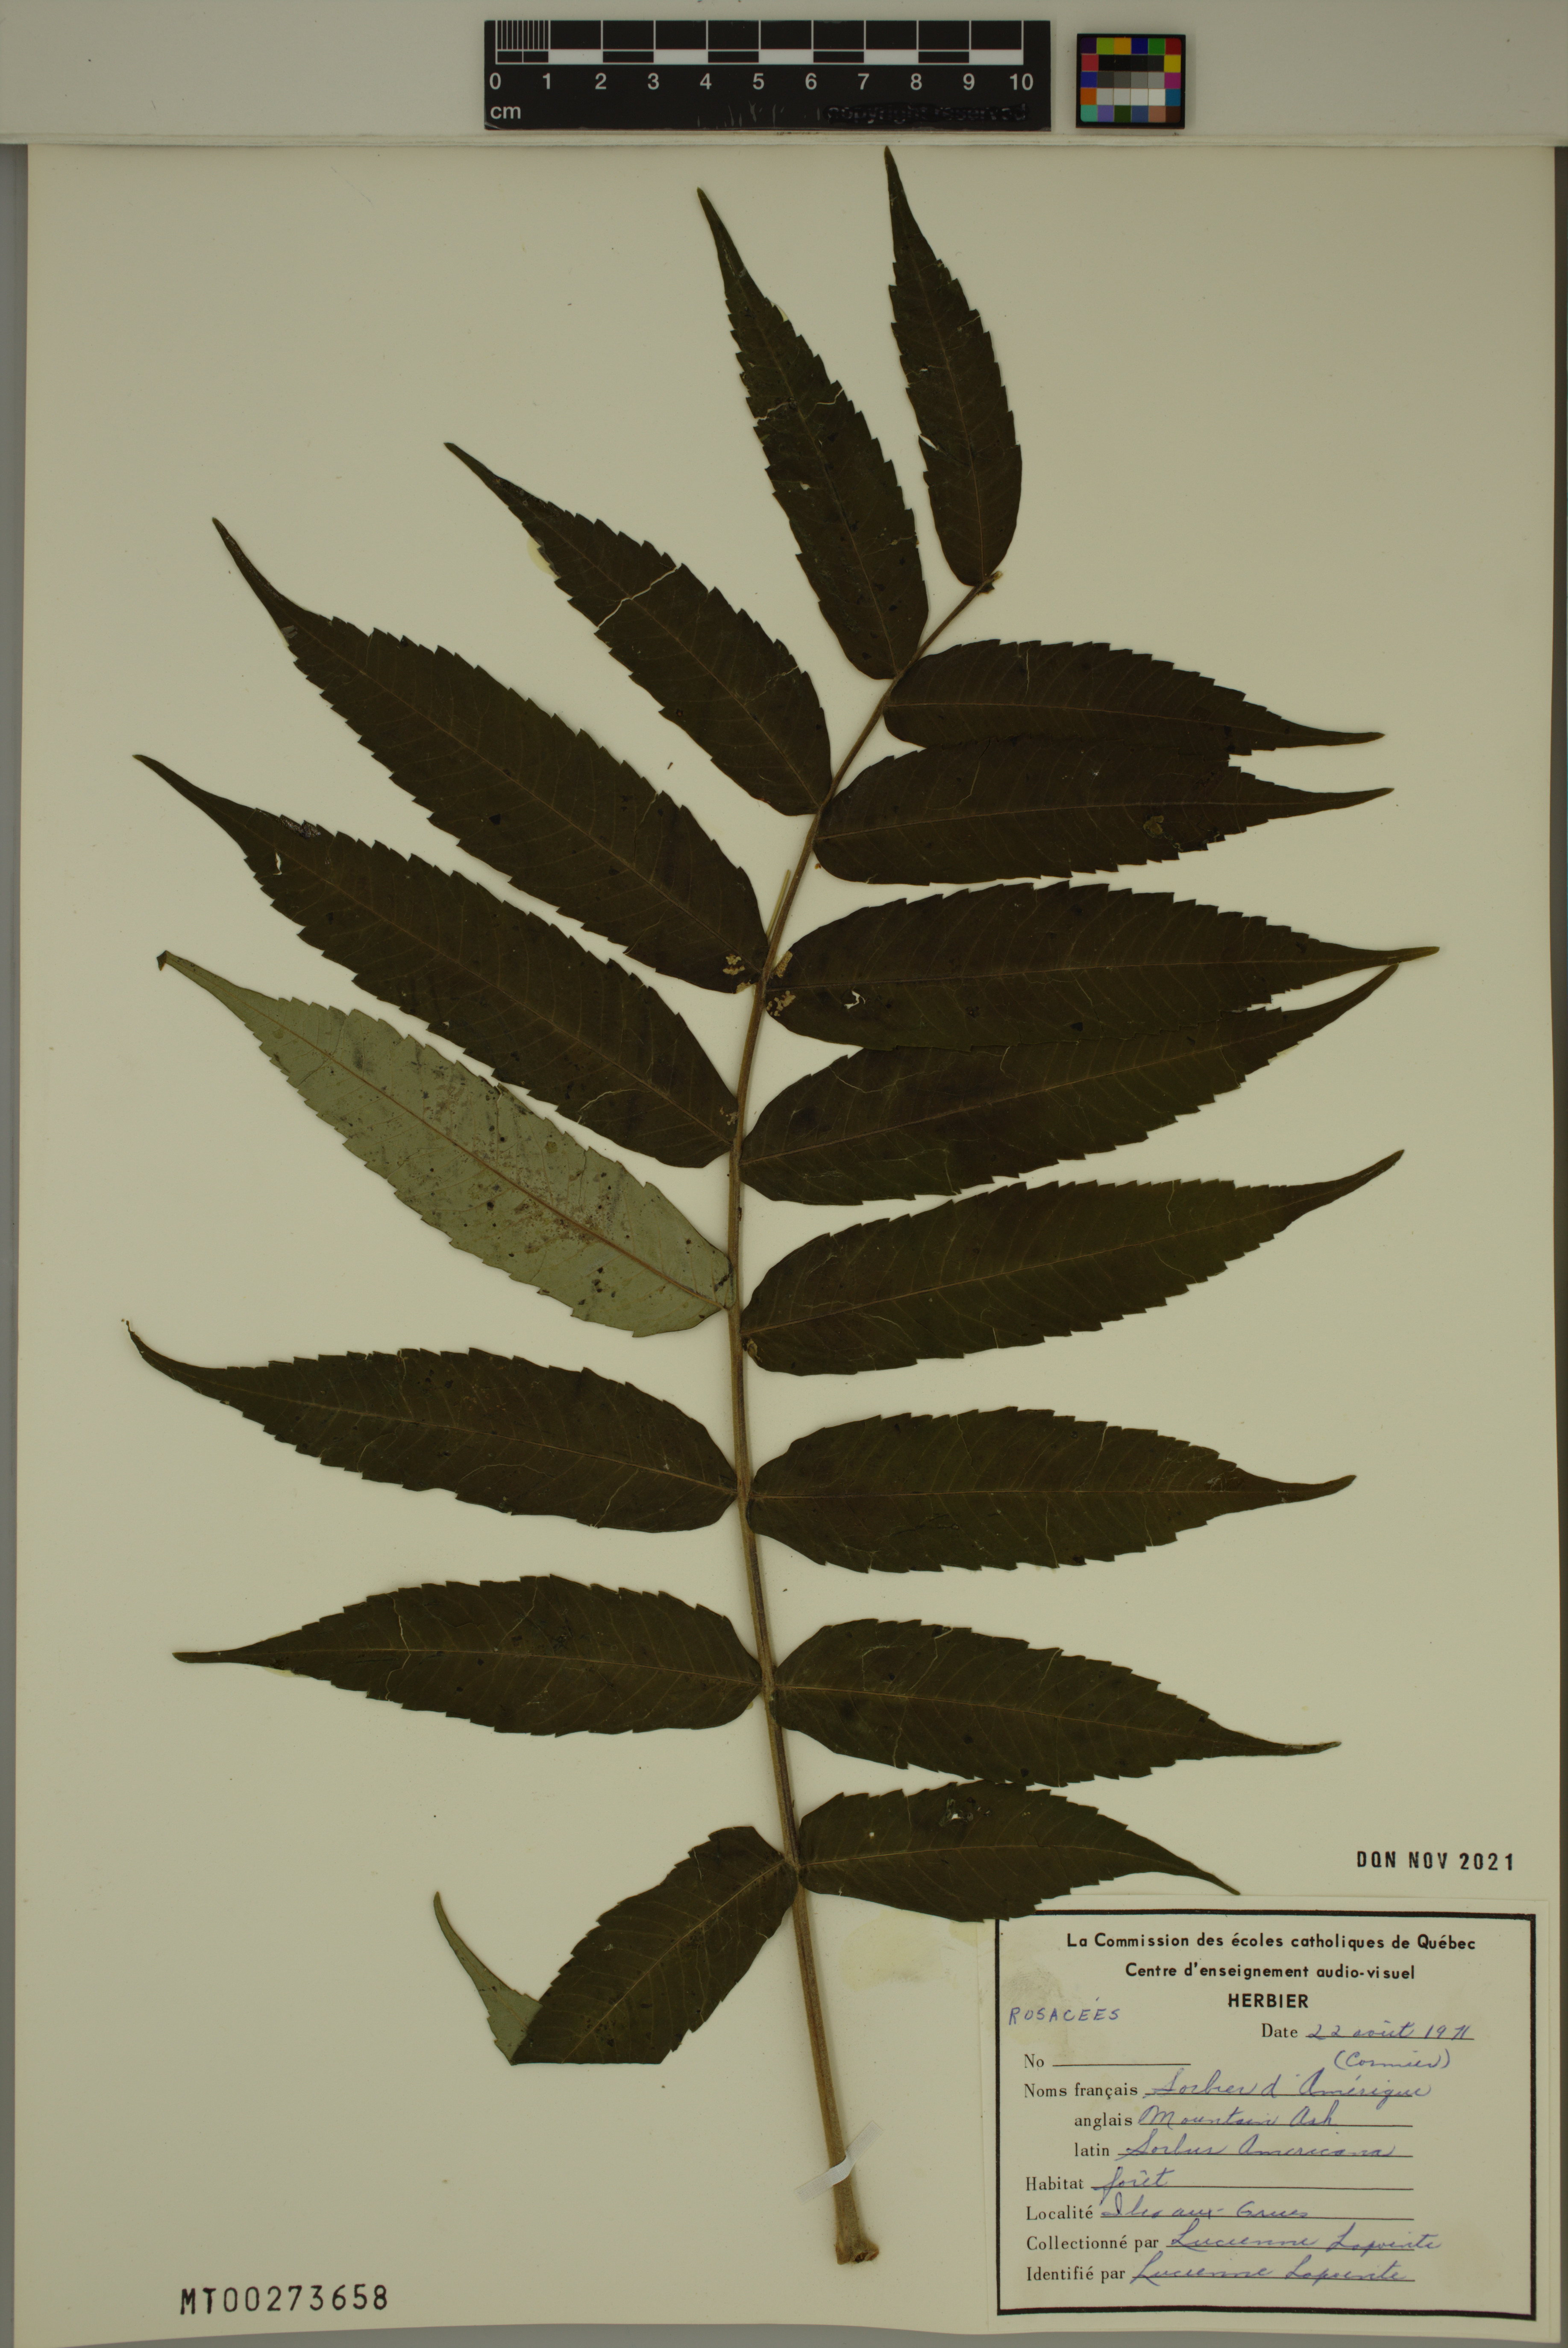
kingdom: Plantae
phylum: Tracheophyta
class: Magnoliopsida
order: Rosales
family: Rosaceae
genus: Sorbus
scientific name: Sorbus americana
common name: American mountain-ash
